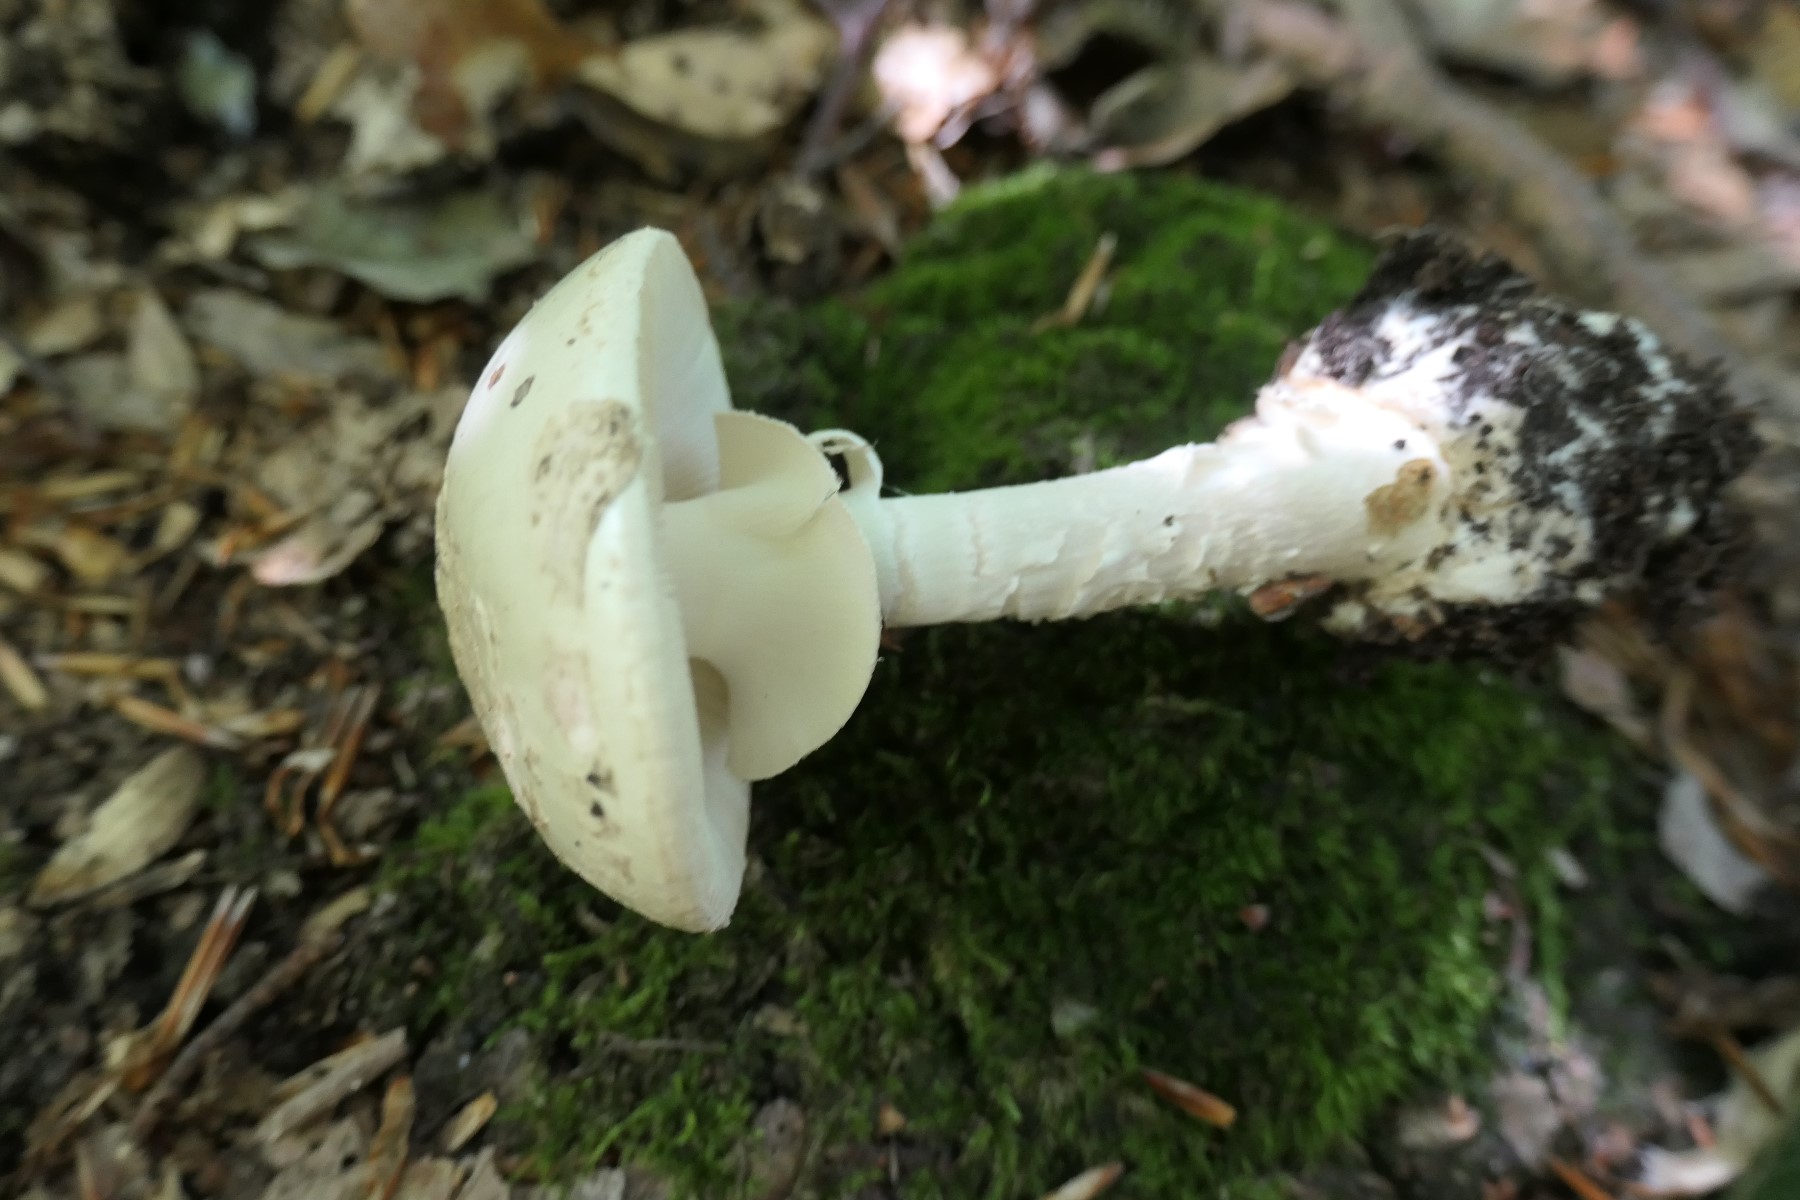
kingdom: Fungi
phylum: Basidiomycota
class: Agaricomycetes
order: Agaricales
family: Amanitaceae
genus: Amanita
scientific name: Amanita citrina
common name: kugleknoldet fluesvamp
